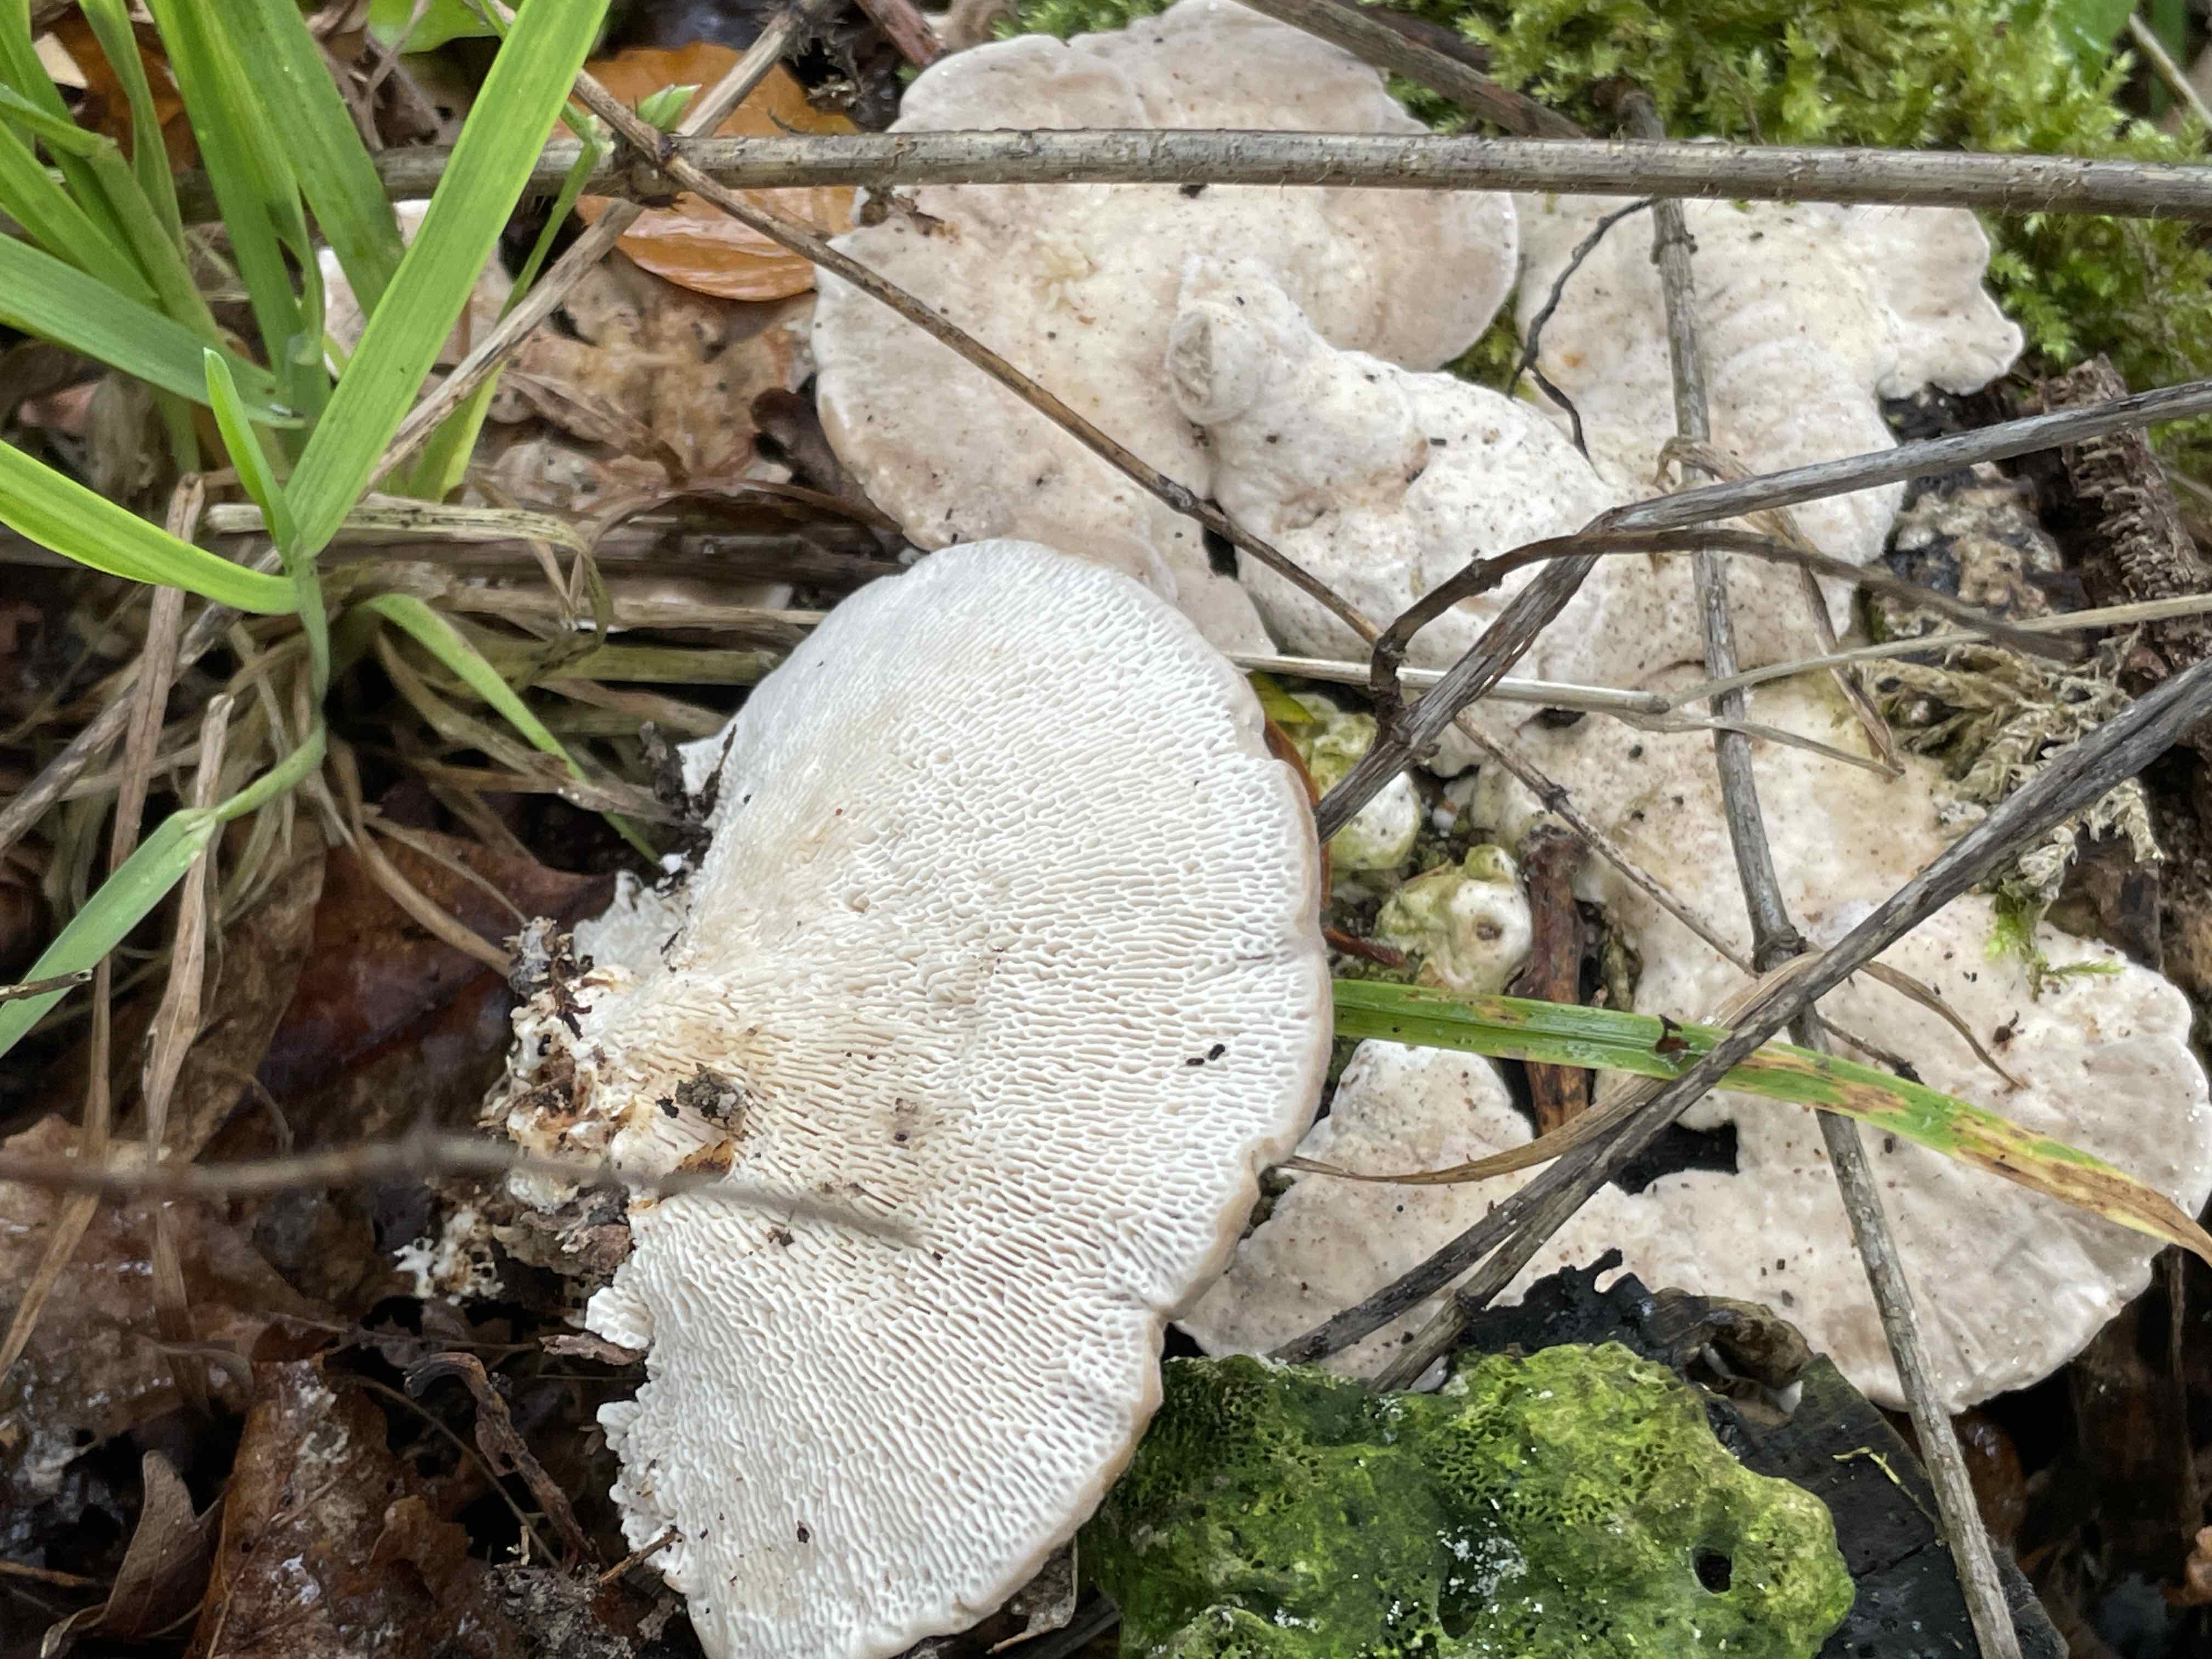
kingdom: Fungi
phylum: Basidiomycota
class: Agaricomycetes
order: Polyporales
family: Polyporaceae
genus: Trametes
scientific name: Trametes gibbosa
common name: puklet læderporesvamp
